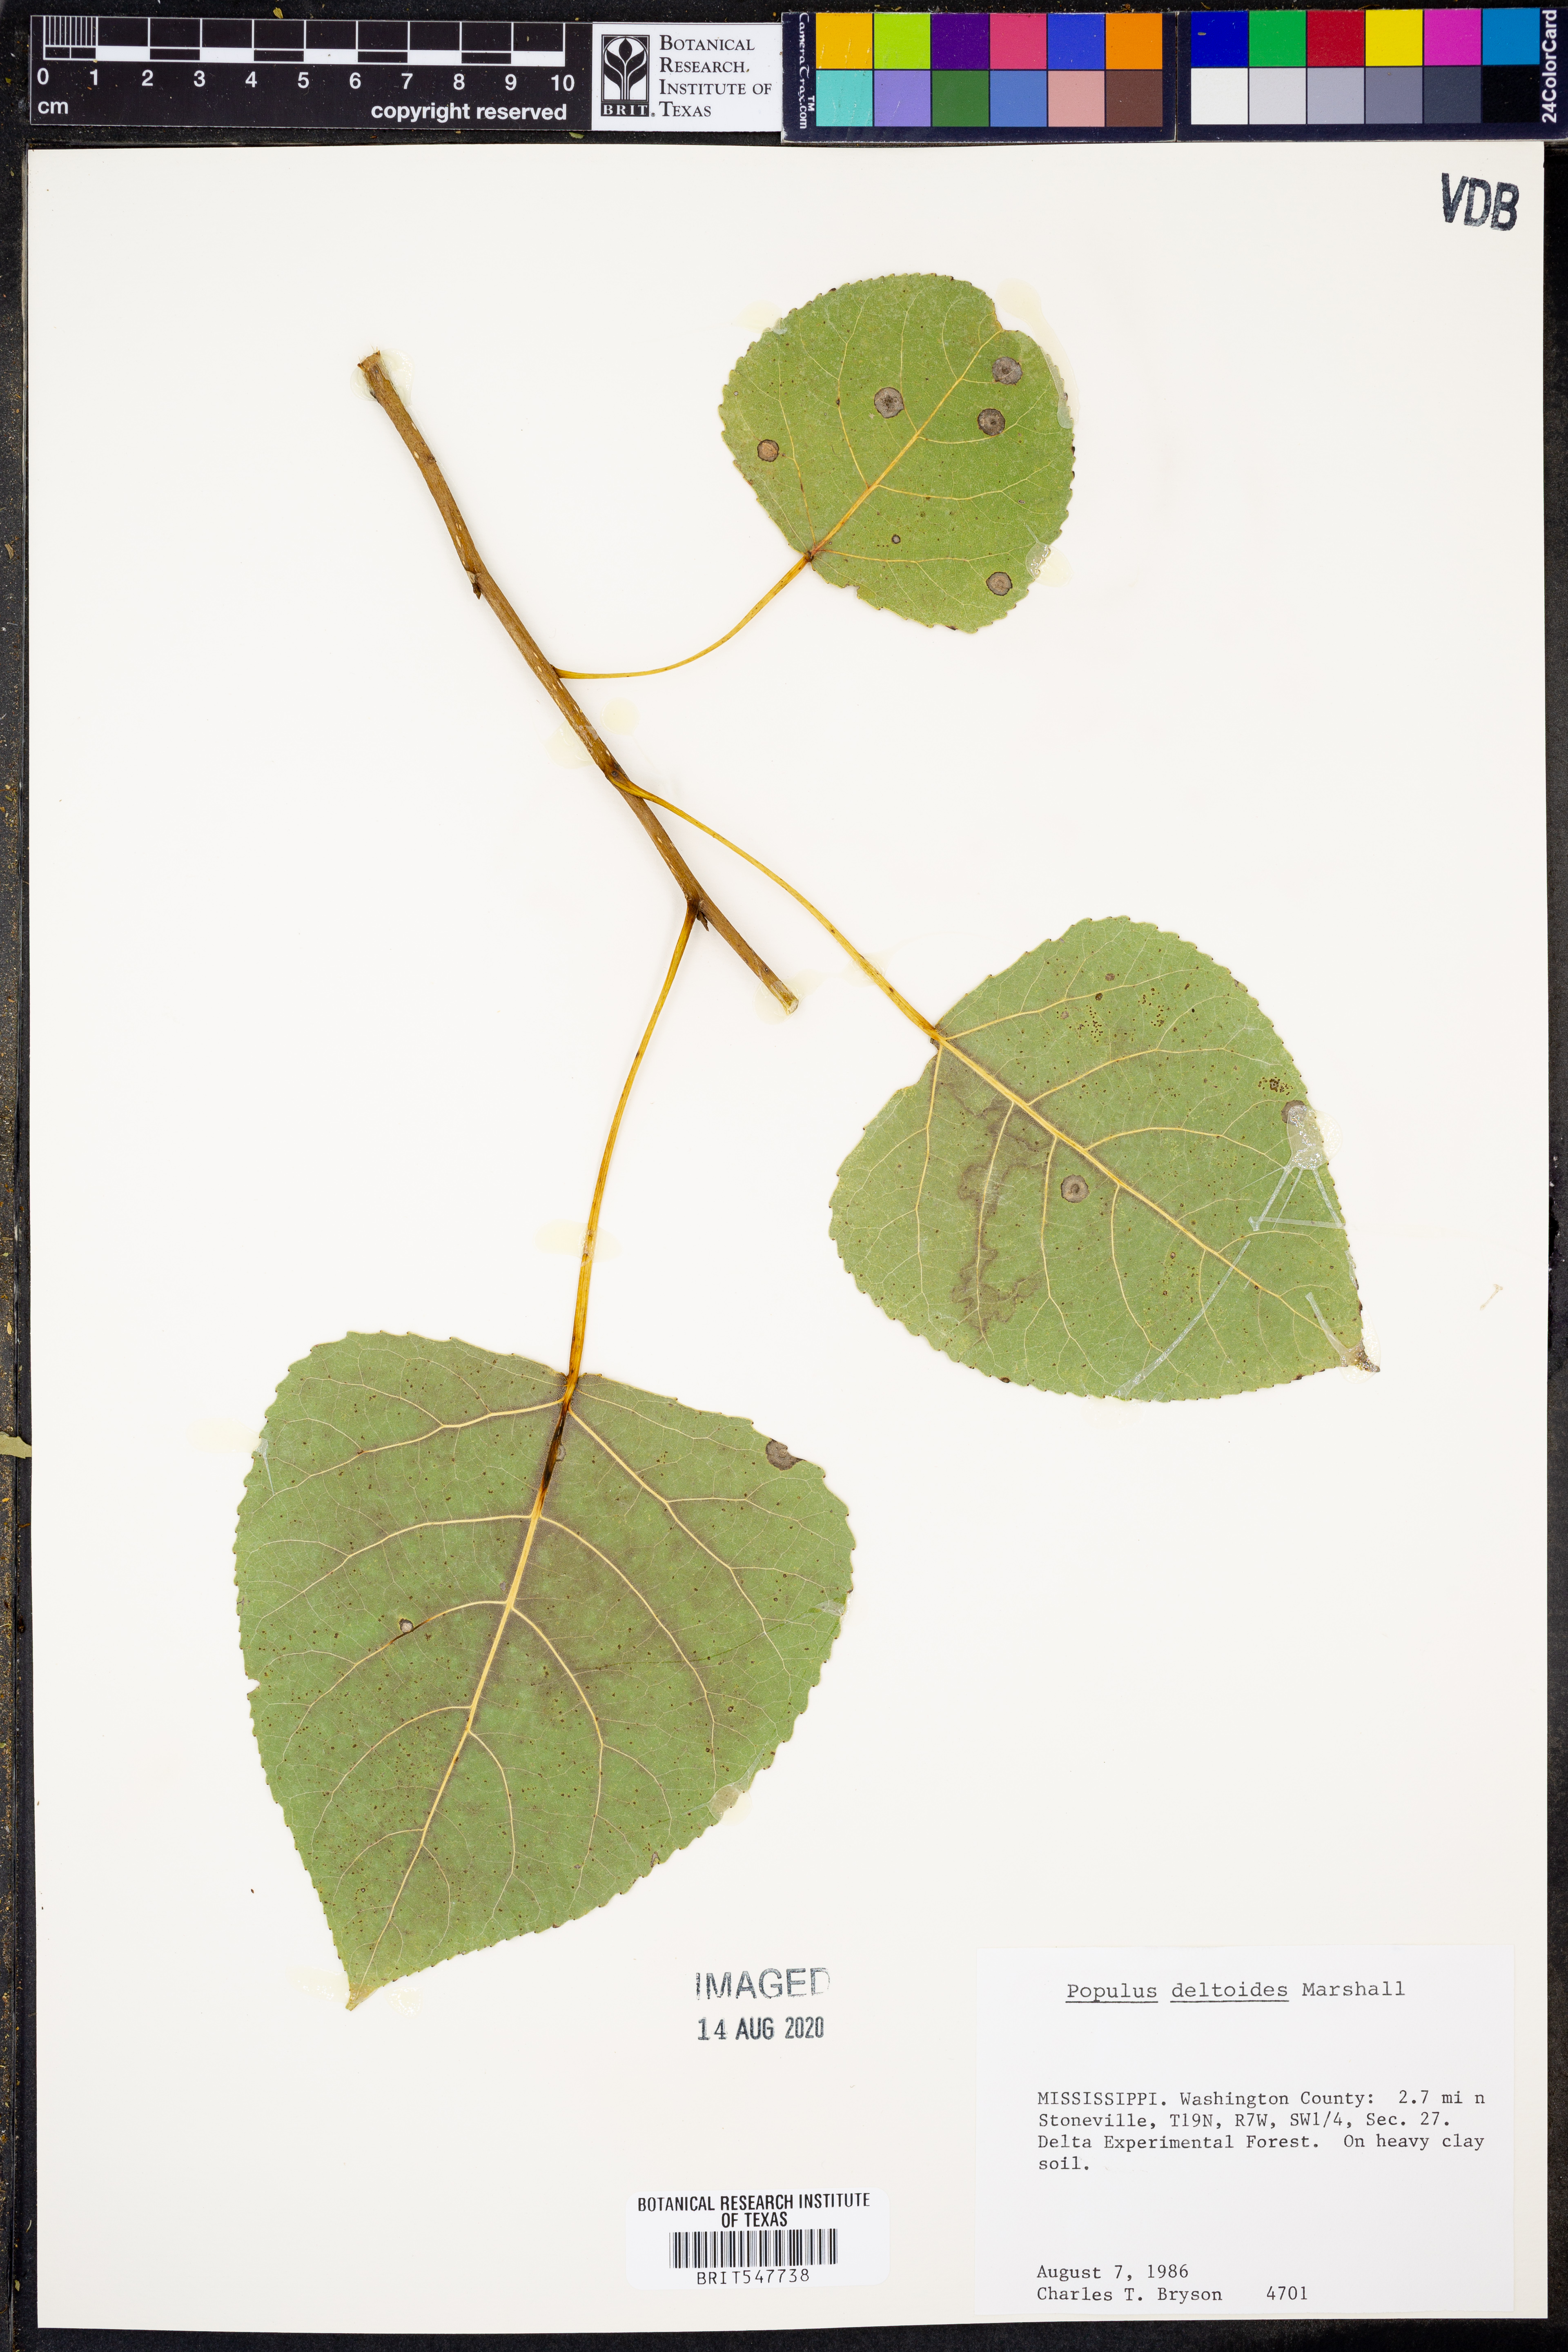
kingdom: Plantae
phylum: Tracheophyta
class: Magnoliopsida
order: Malpighiales
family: Salicaceae
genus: Populus
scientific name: Populus deltoides
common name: Eastern cottonwood
